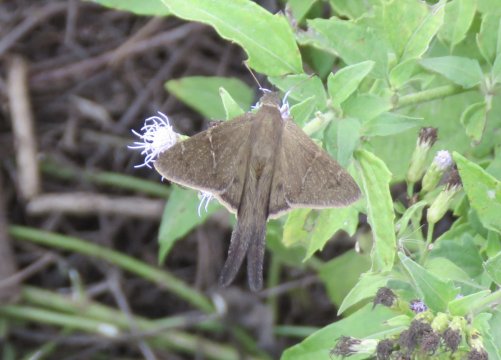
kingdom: Animalia
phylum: Arthropoda
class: Insecta
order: Lepidoptera
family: Hesperiidae
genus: Urbanus
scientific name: Urbanus procne
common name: Brown Longtail
